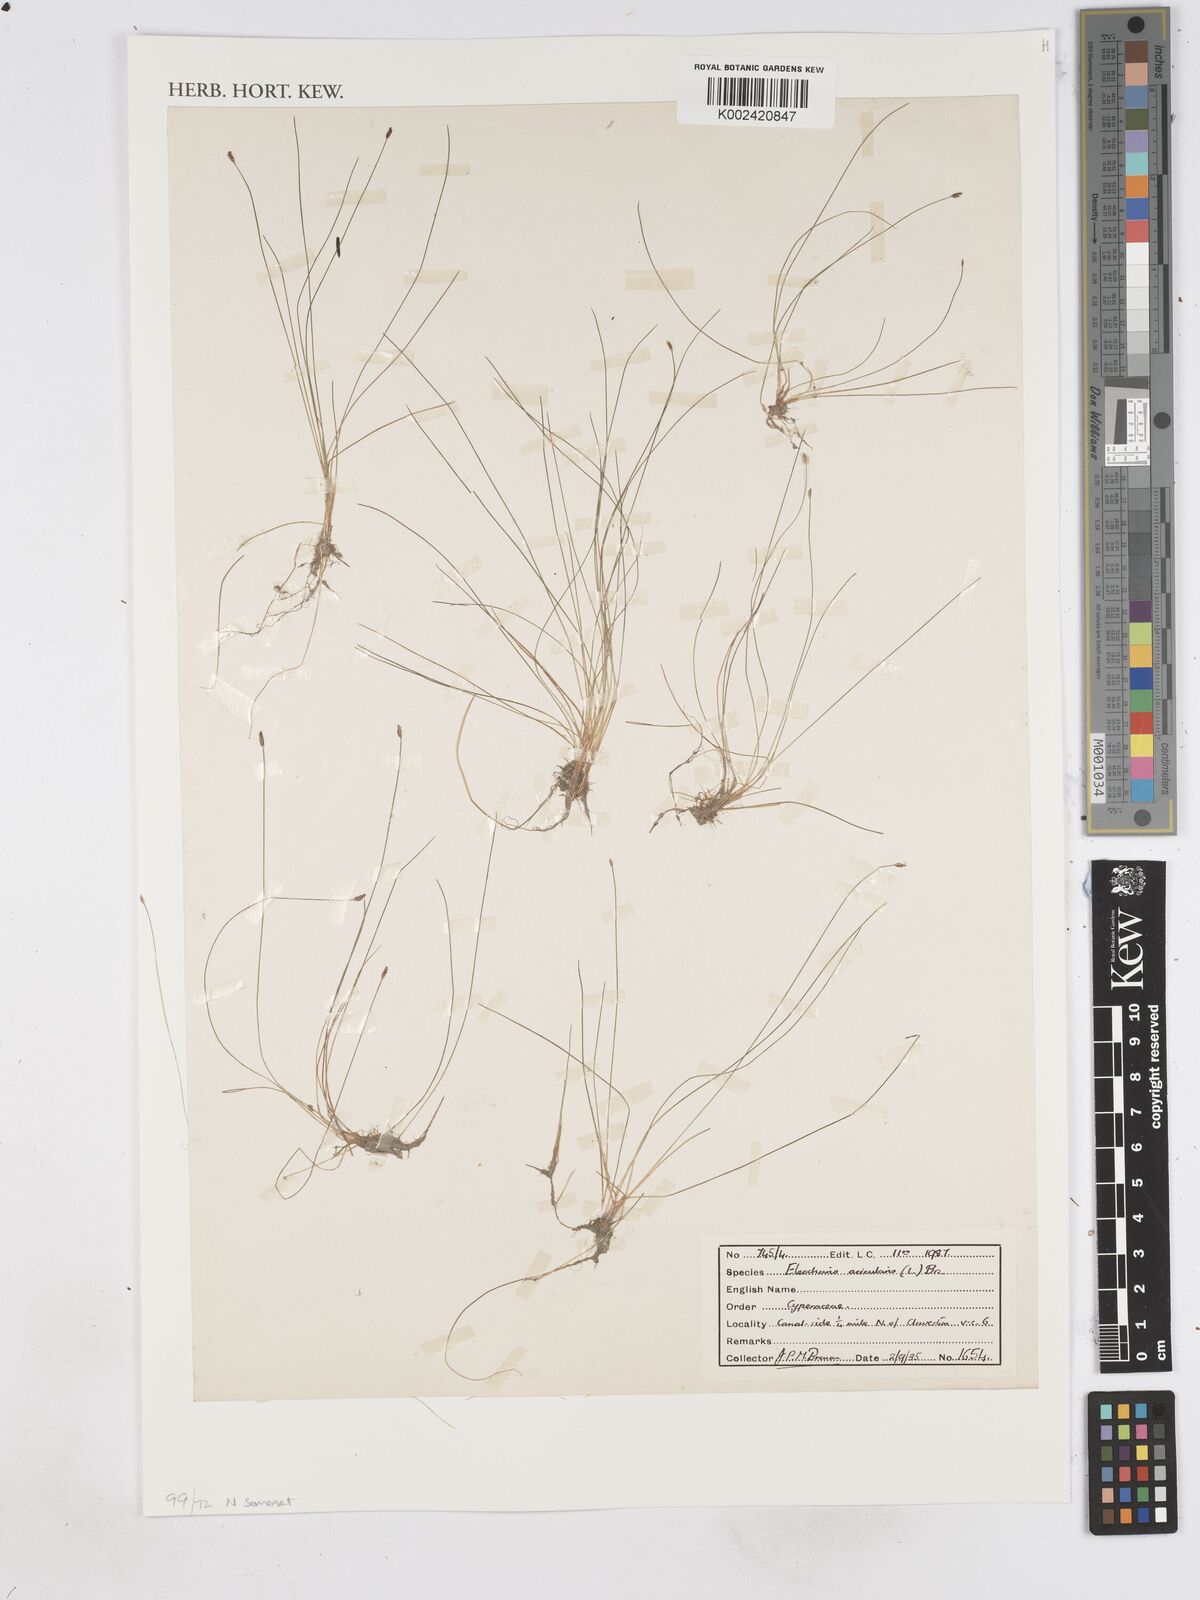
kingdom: Plantae
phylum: Tracheophyta
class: Liliopsida
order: Poales
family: Cyperaceae
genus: Eleocharis
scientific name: Eleocharis acicularis
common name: Needle spike-rush
